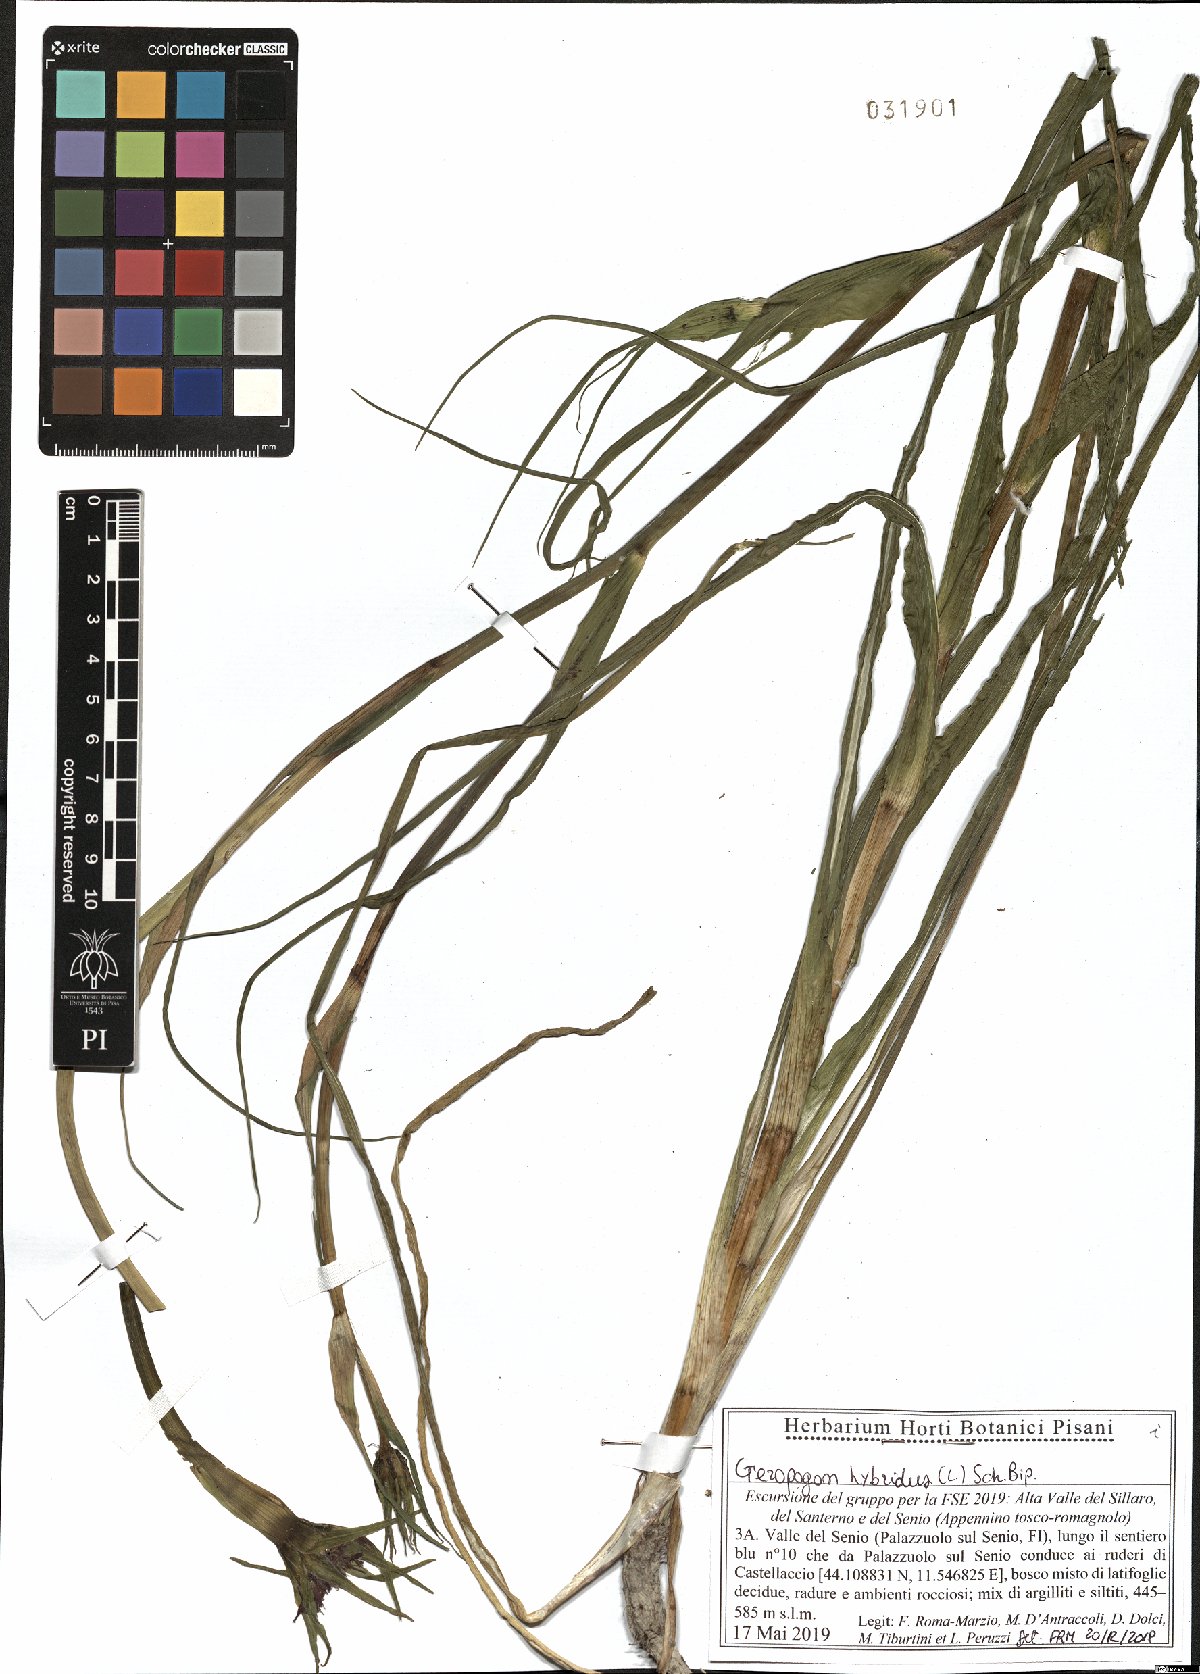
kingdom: Plantae
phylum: Tracheophyta
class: Magnoliopsida
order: Asterales
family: Asteraceae
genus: Geropogon
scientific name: Geropogon hybridus
